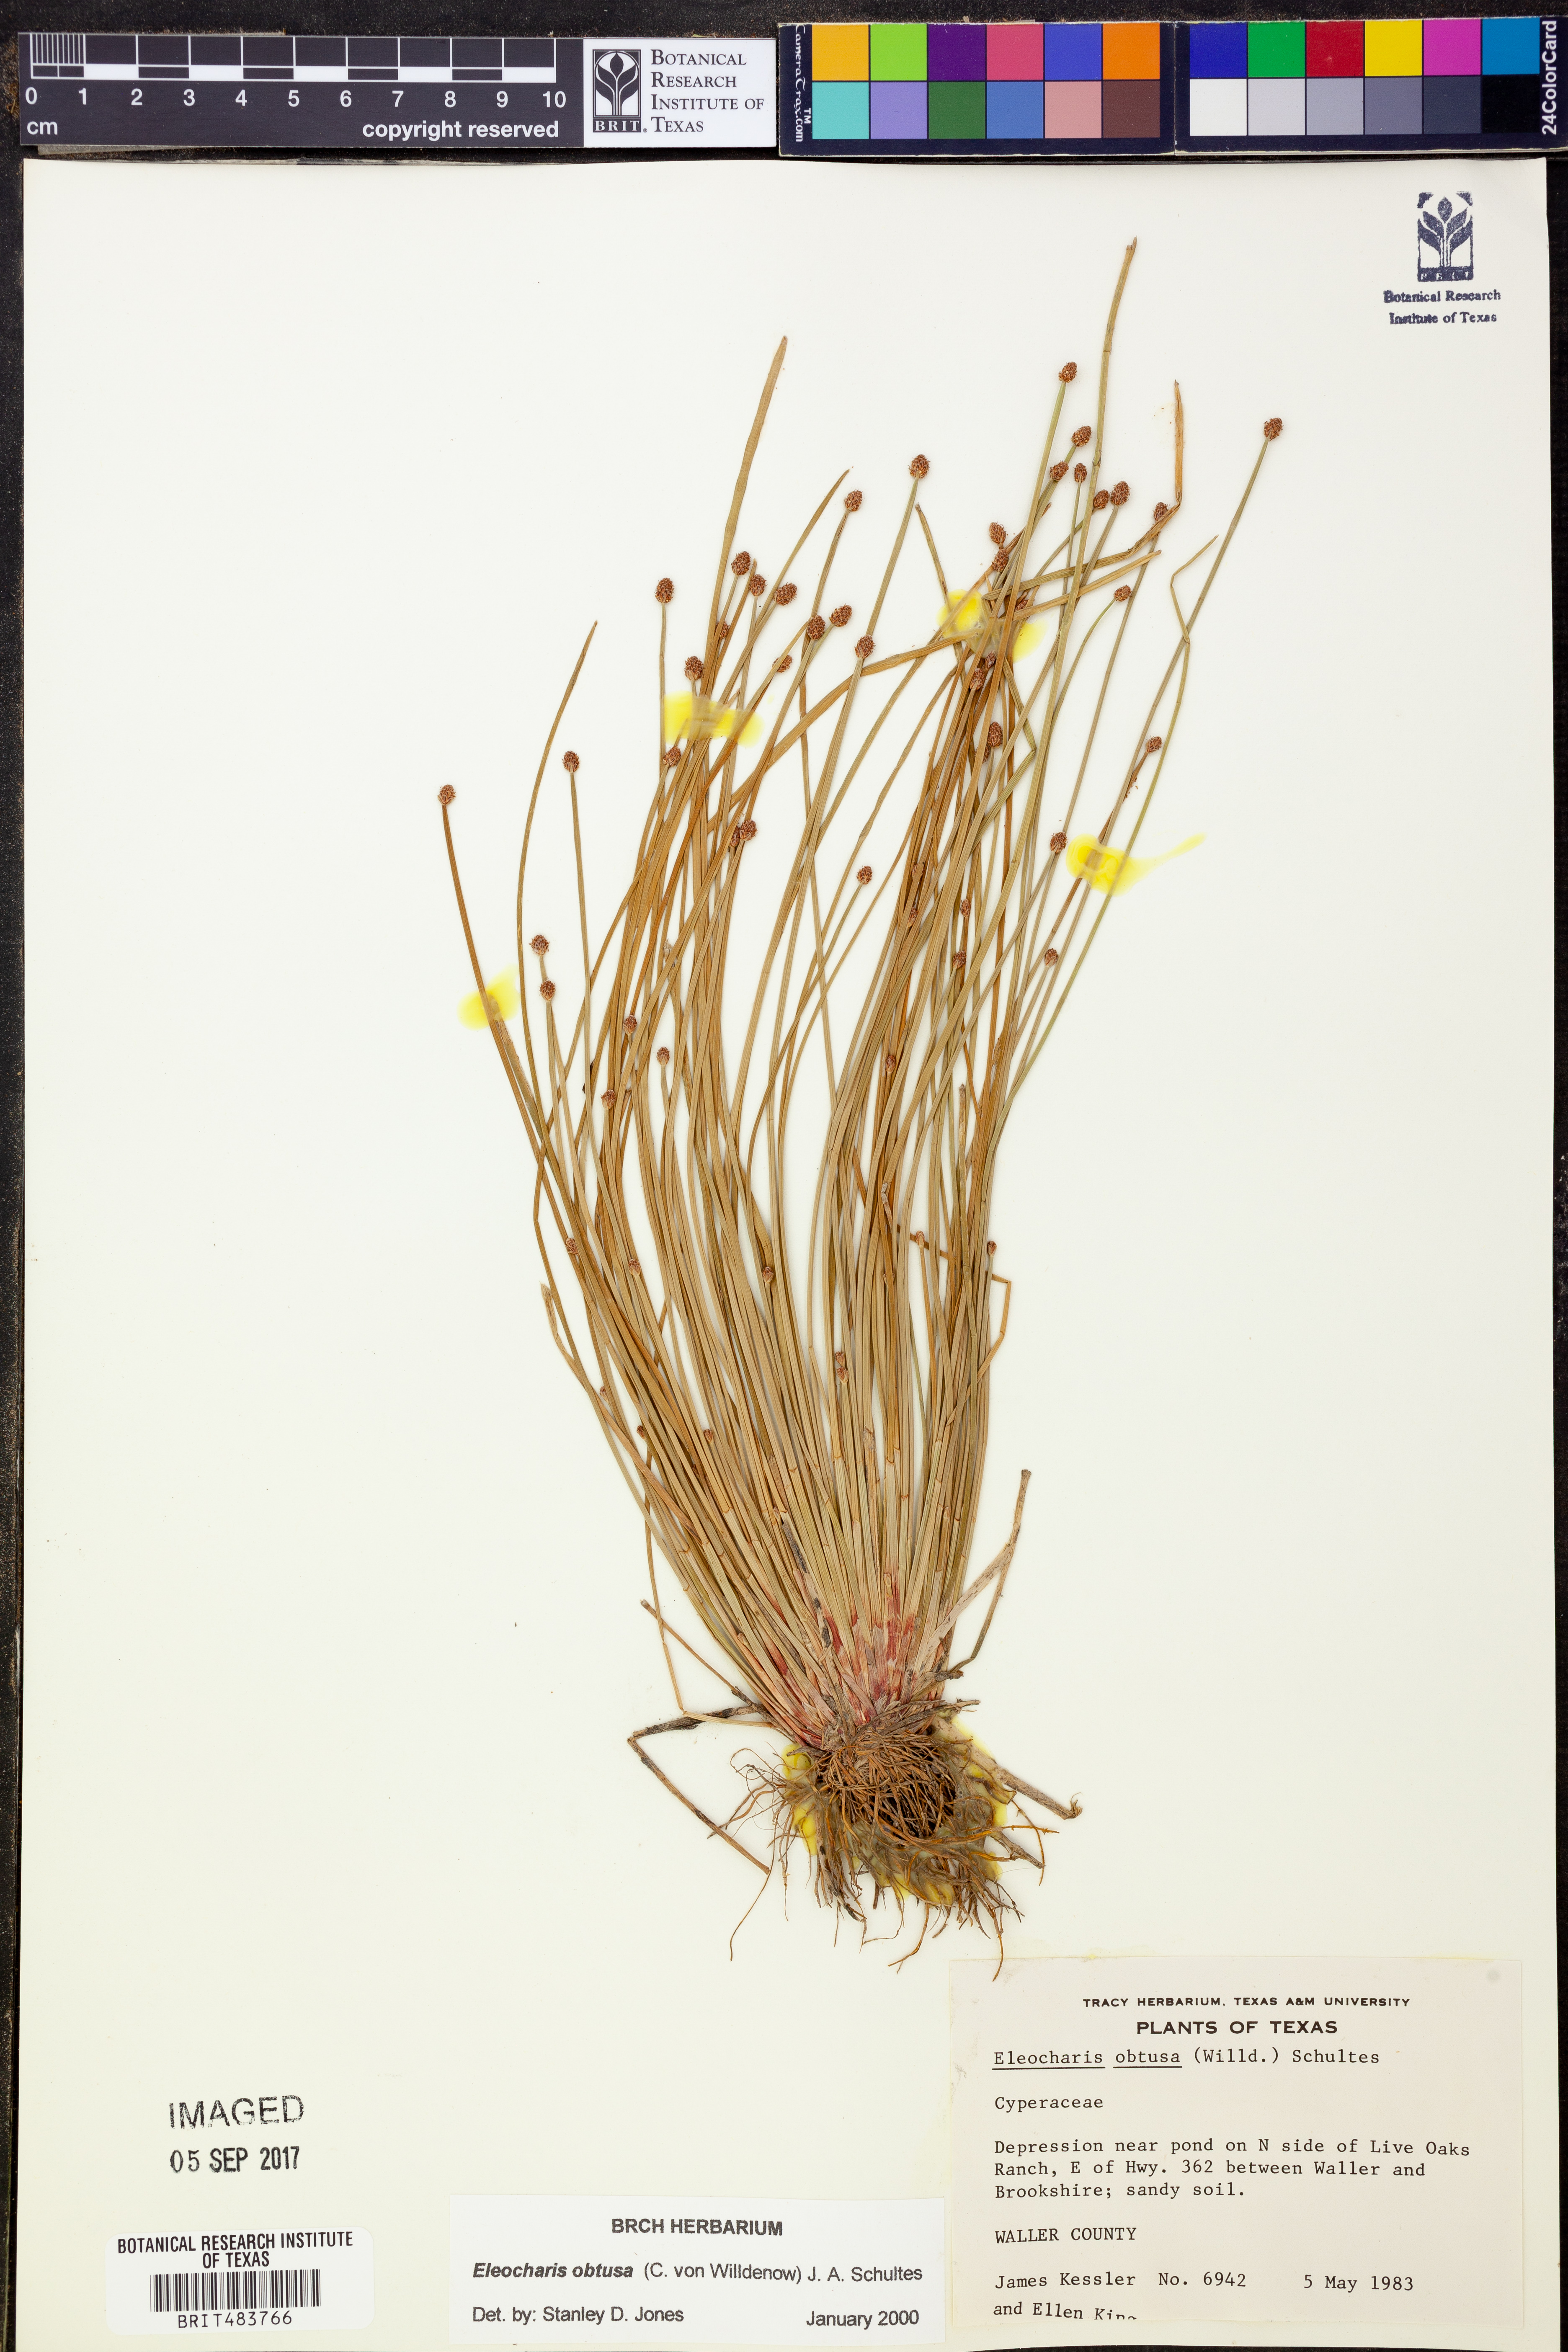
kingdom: Plantae
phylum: Tracheophyta
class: Liliopsida
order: Poales
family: Cyperaceae
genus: Eleocharis
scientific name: Eleocharis obtusa
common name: Blunt spikerush
